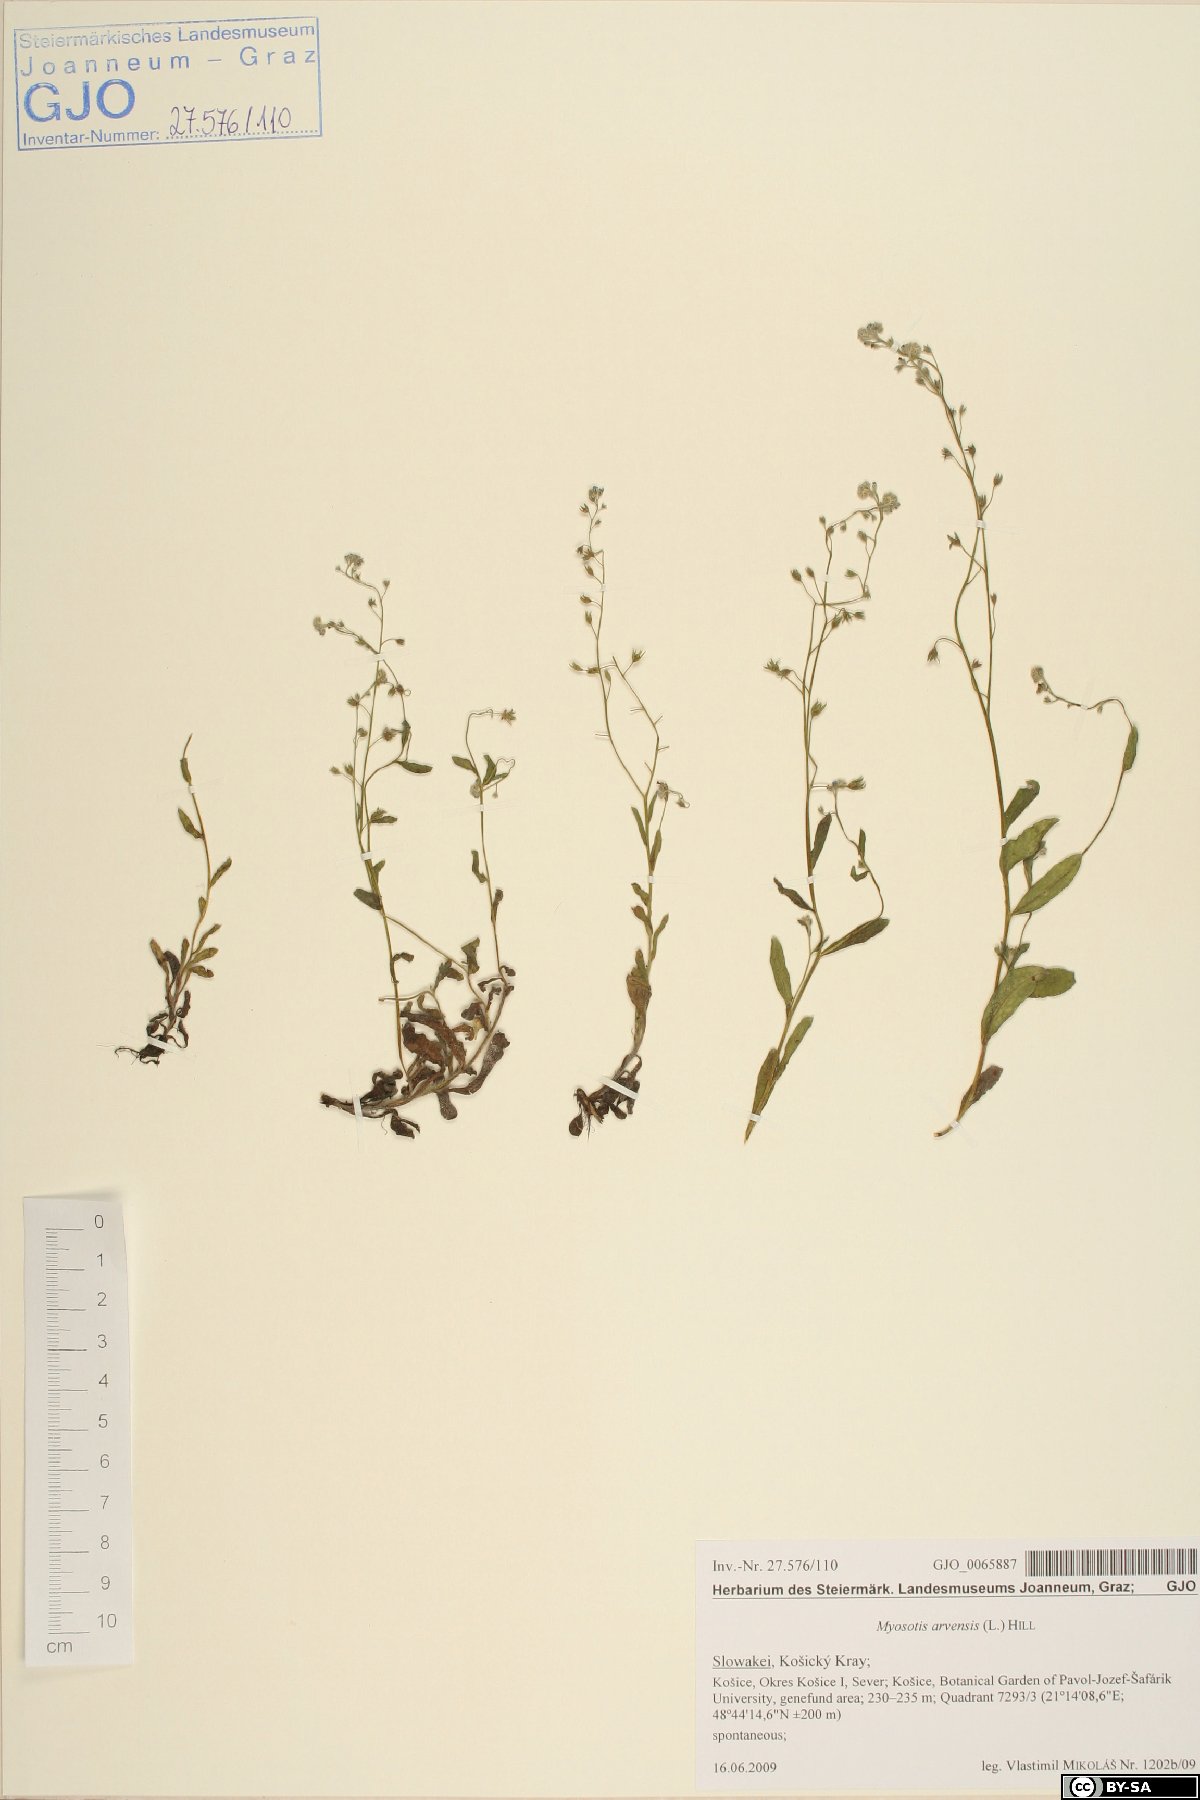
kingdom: Plantae
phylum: Tracheophyta
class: Magnoliopsida
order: Boraginales
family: Boraginaceae
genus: Myosotis
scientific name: Myosotis arvensis
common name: Field forget-me-not
